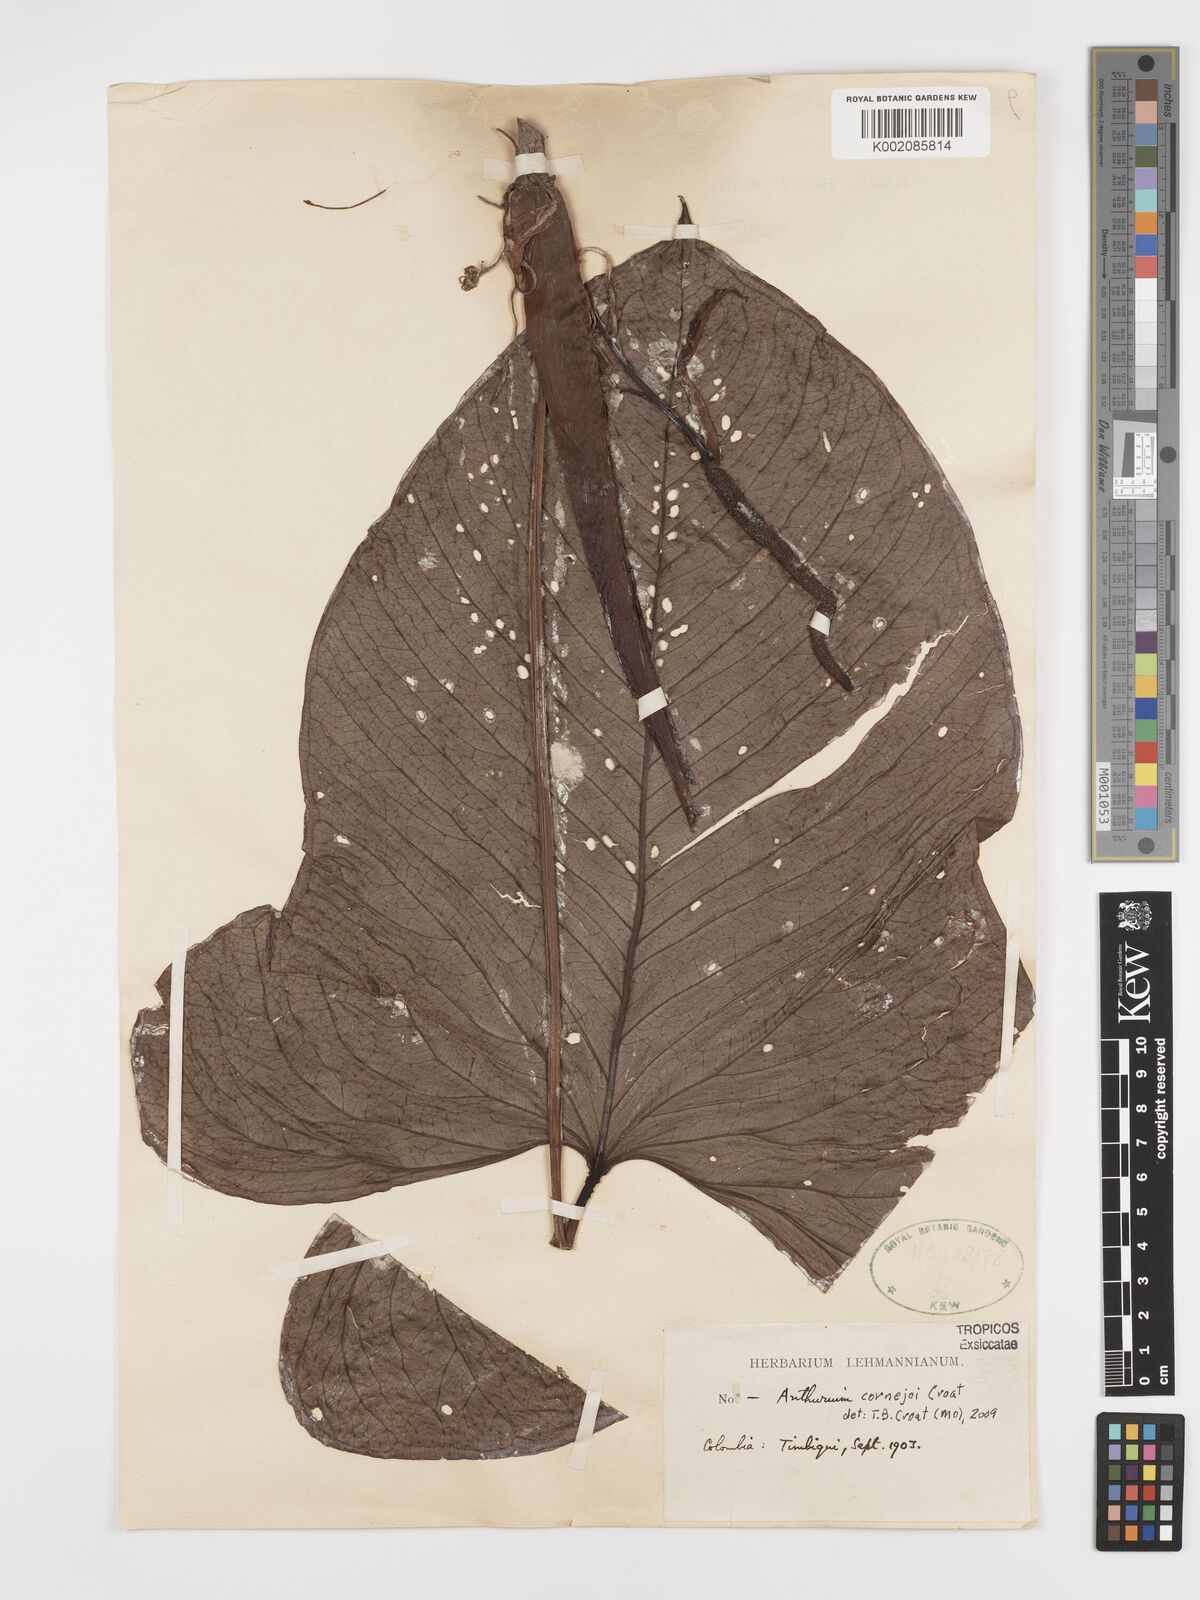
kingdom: Plantae
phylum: Tracheophyta
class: Liliopsida
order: Alismatales
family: Araceae
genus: Anthurium
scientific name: Anthurium cornejoi
